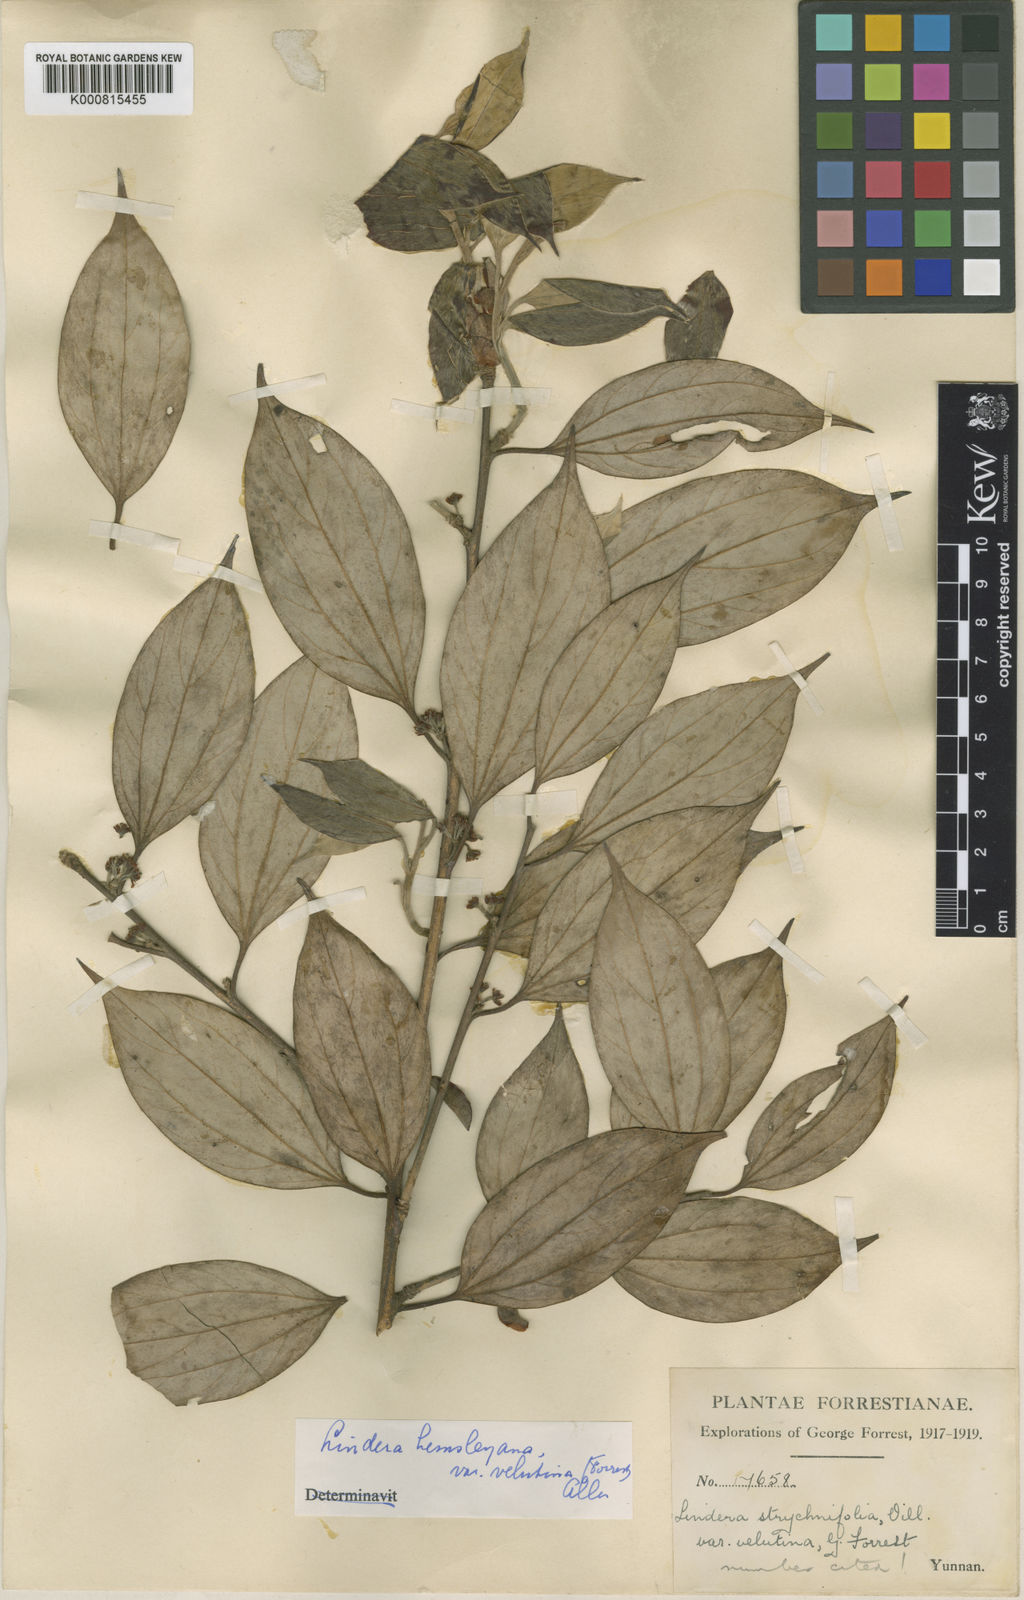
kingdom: Plantae
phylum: Tracheophyta
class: Magnoliopsida
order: Laurales
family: Lauraceae
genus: Lindera
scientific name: Lindera pulcherrima
